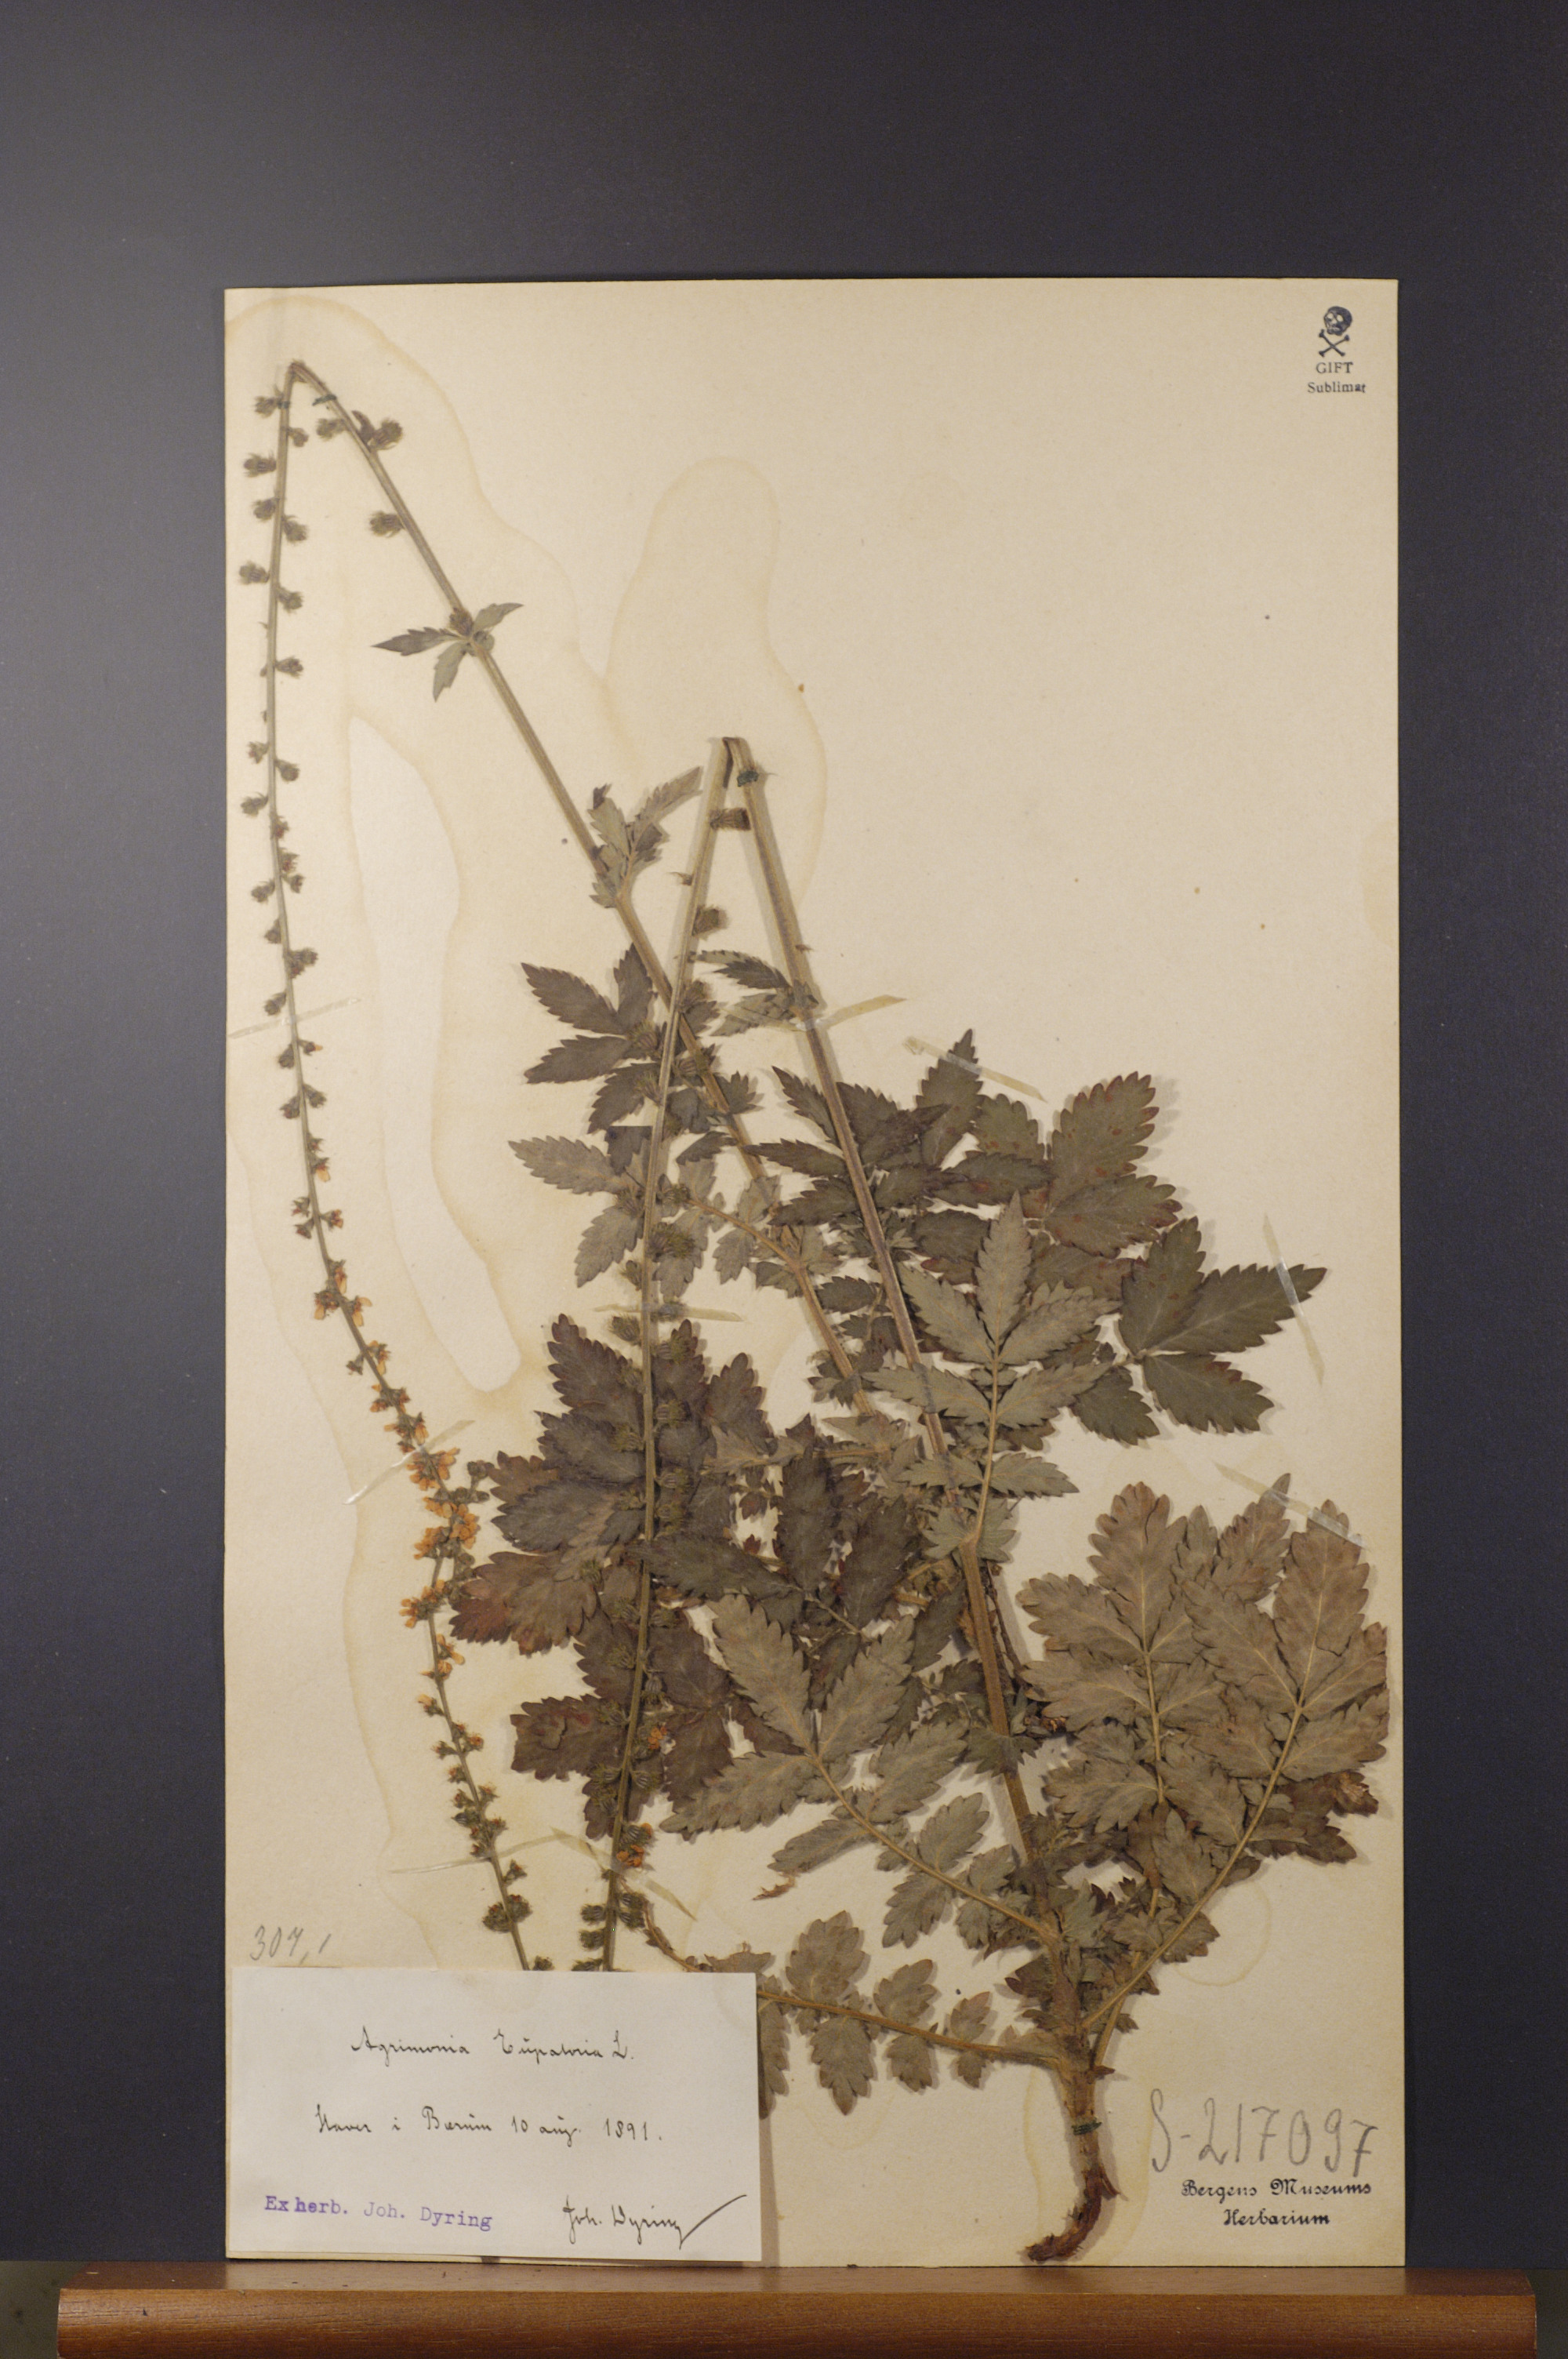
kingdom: Plantae
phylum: Tracheophyta
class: Magnoliopsida
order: Rosales
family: Rosaceae
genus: Agrimonia
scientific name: Agrimonia eupatoria
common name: Agrimony
